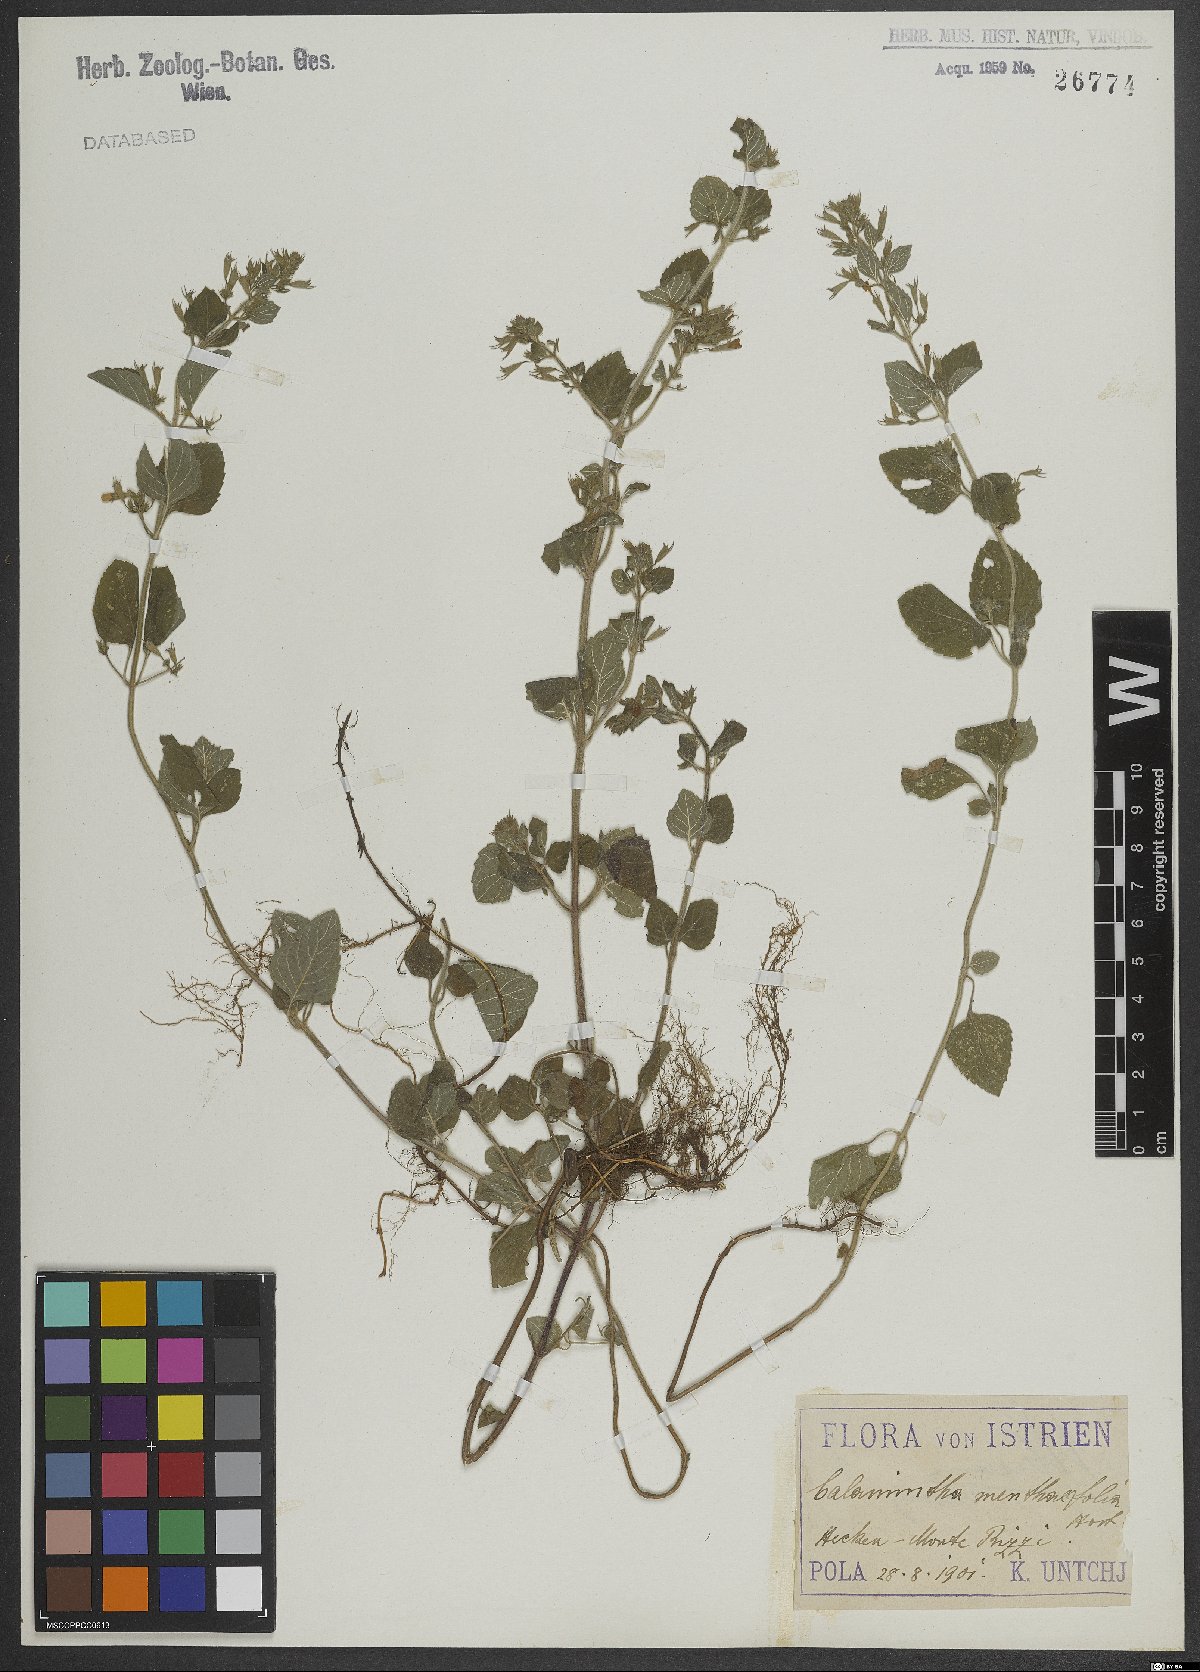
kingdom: Plantae
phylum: Tracheophyta
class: Magnoliopsida
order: Lamiales
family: Lamiaceae
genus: Calamintha
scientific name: Calamintha
